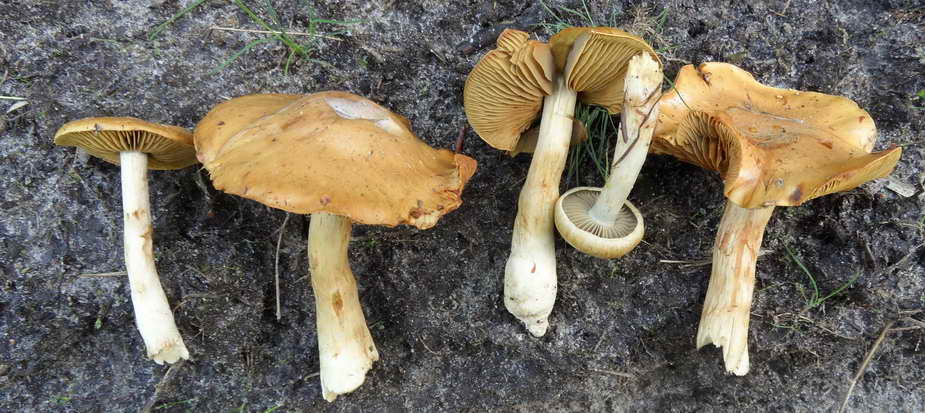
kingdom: Fungi
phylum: Basidiomycota
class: Agaricomycetes
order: Agaricales
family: Cortinariaceae
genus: Cortinarius
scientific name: Cortinarius subtortus
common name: olivengul slørhat
